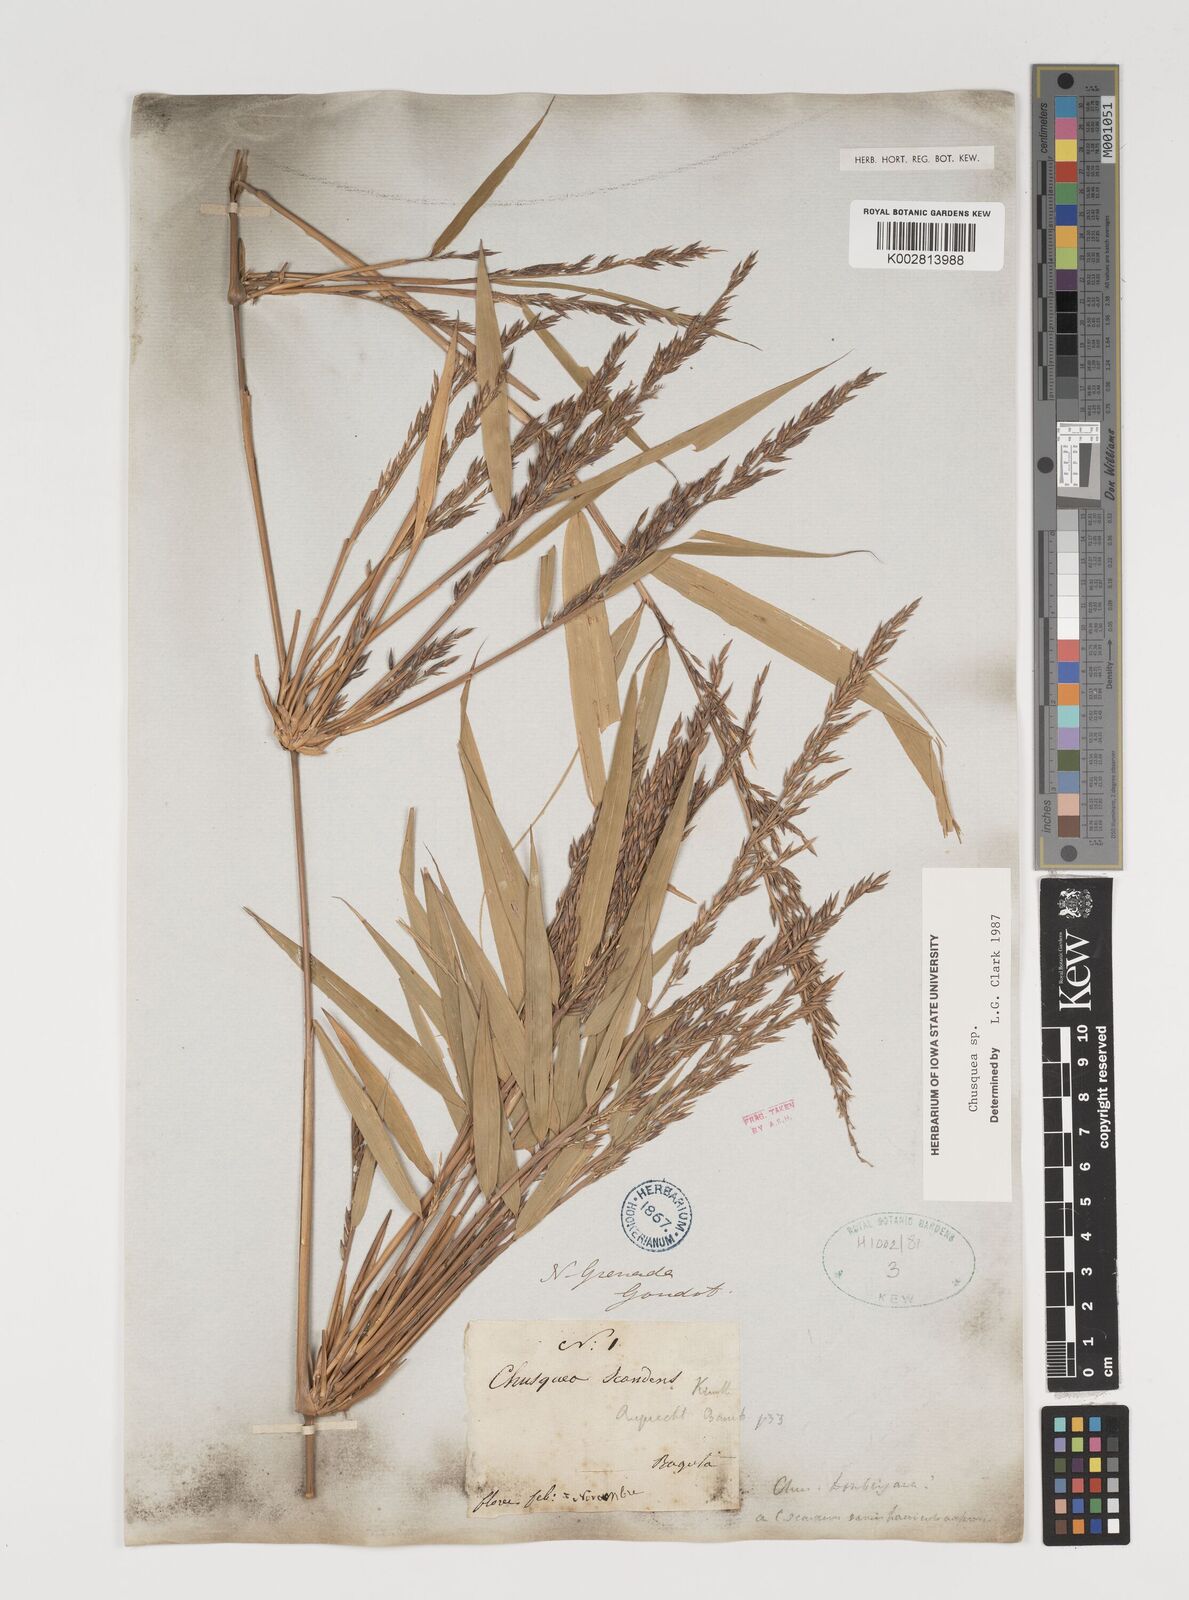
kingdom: Plantae
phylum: Tracheophyta
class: Liliopsida
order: Poales
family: Poaceae
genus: Chusquea
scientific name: Chusquea
